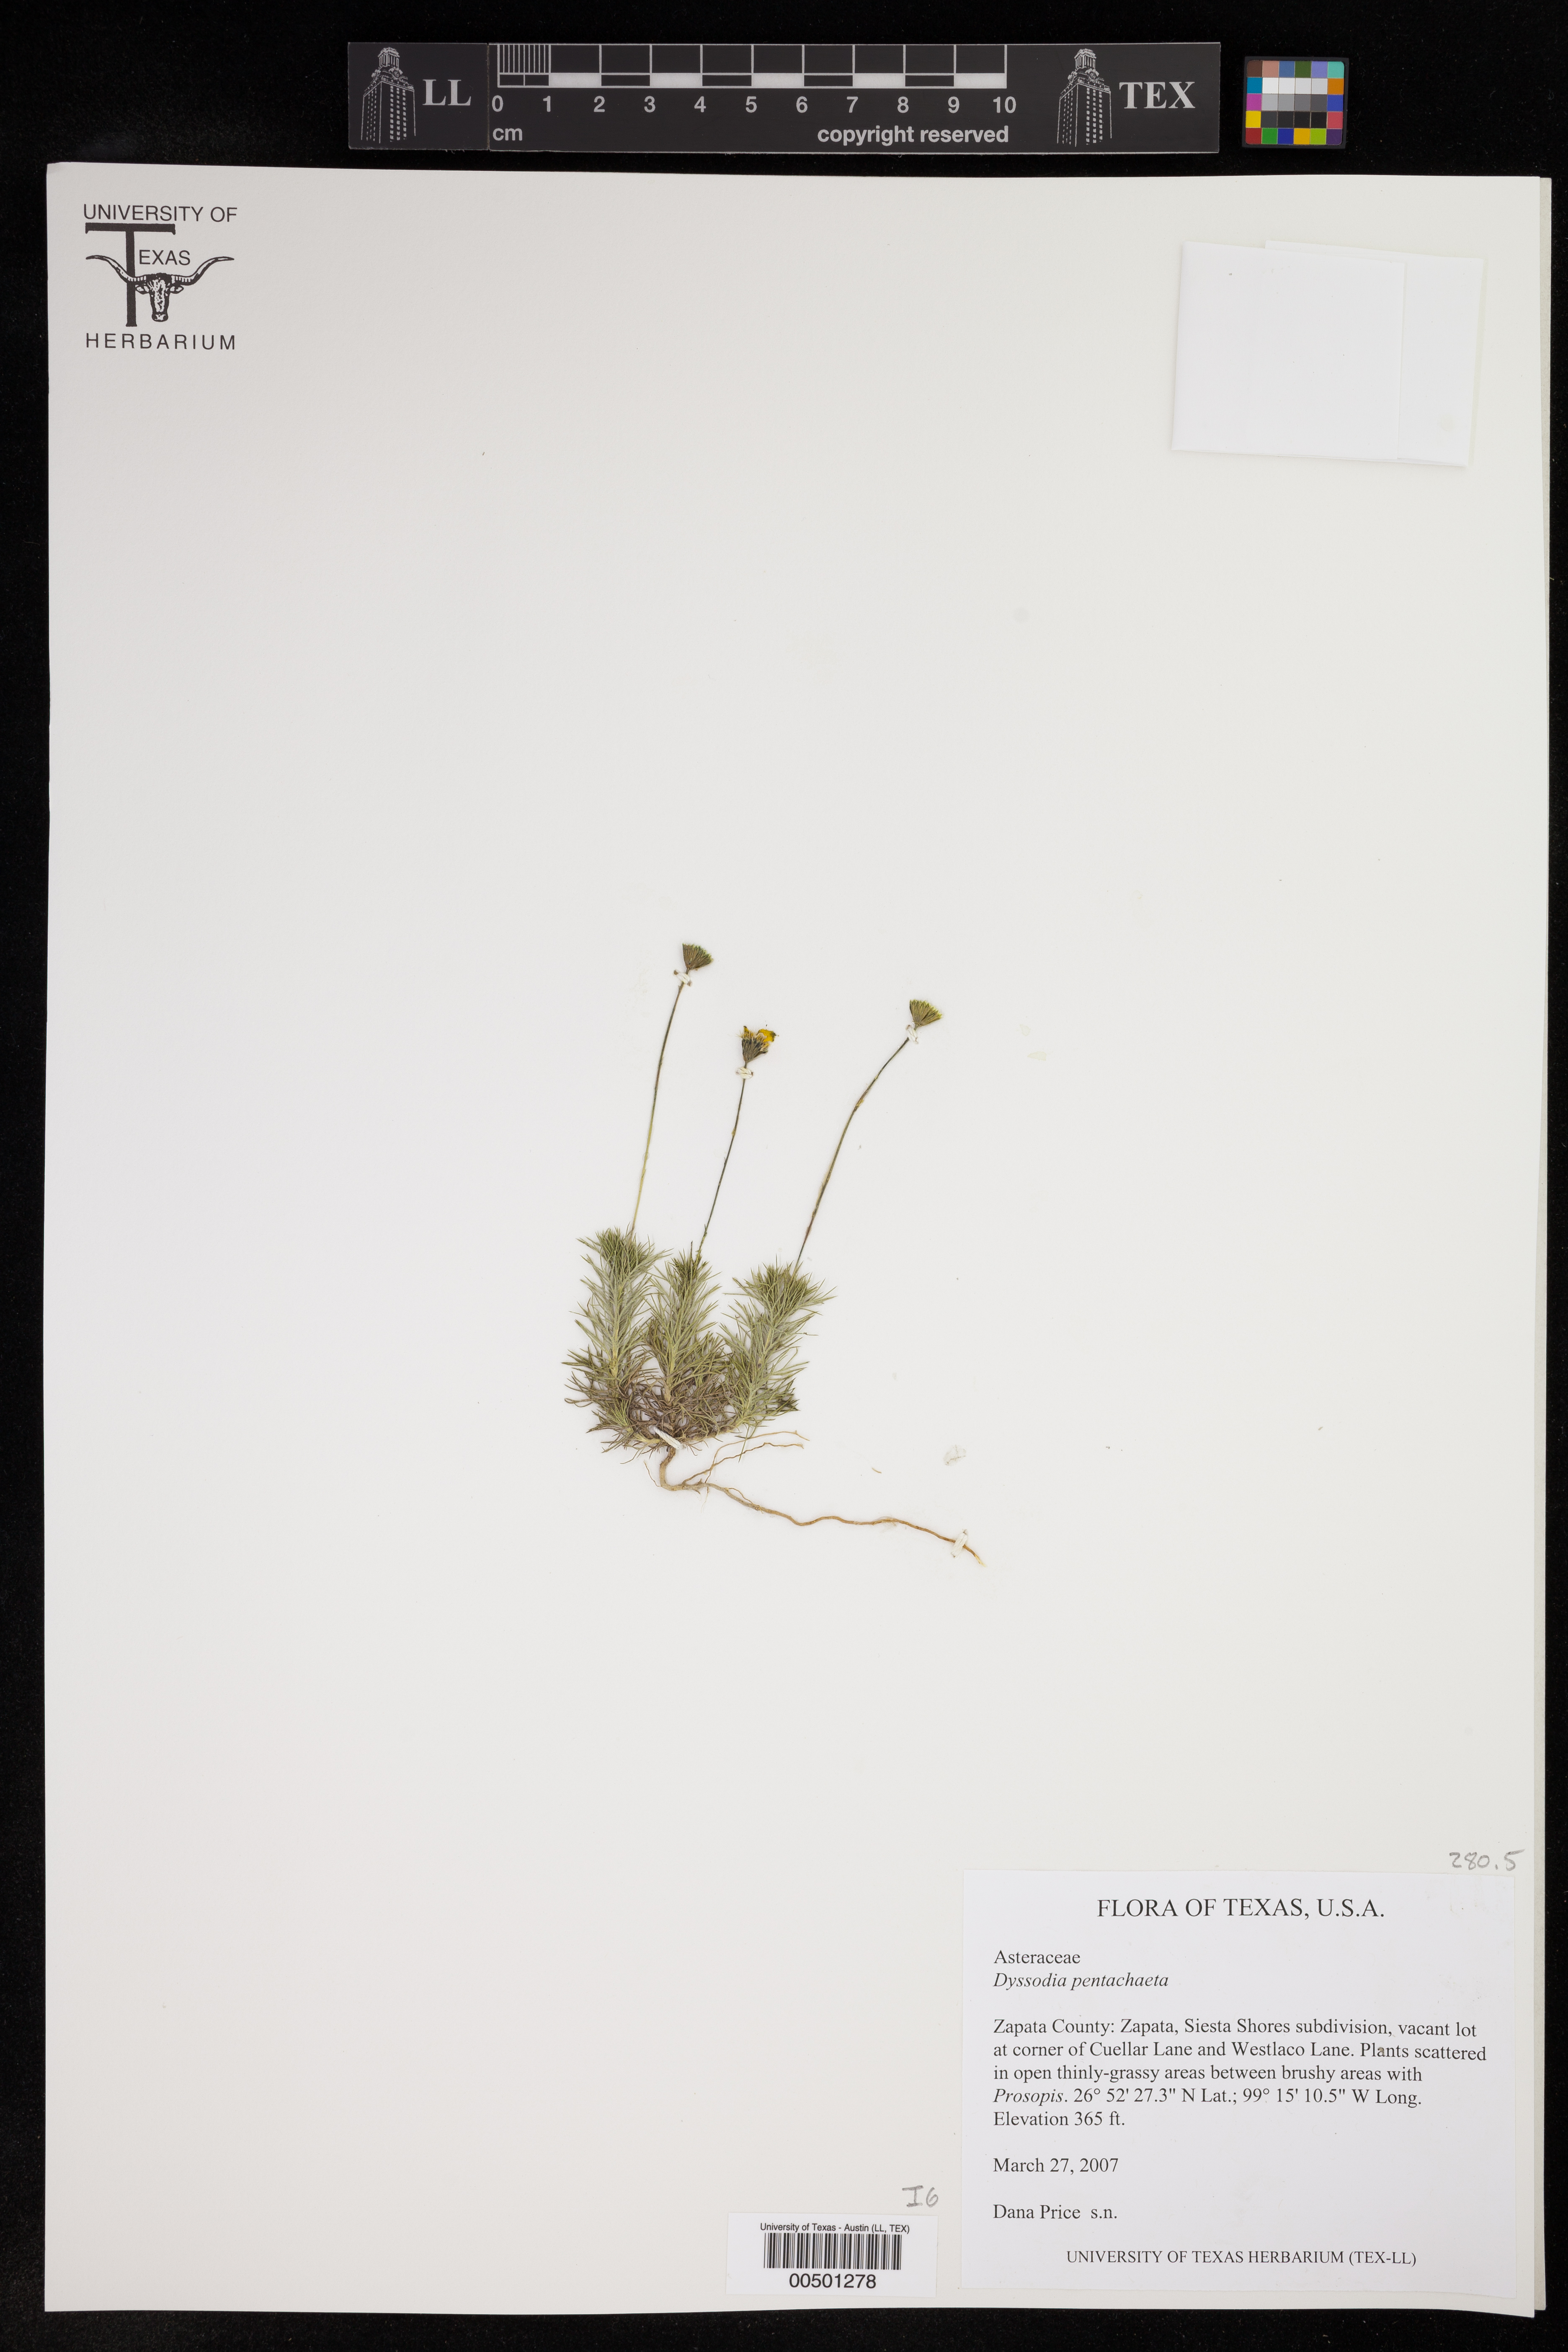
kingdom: Plantae
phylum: Tracheophyta
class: Magnoliopsida
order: Asterales
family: Asteraceae
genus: Thymophylla
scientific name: Thymophylla pentachaeta
